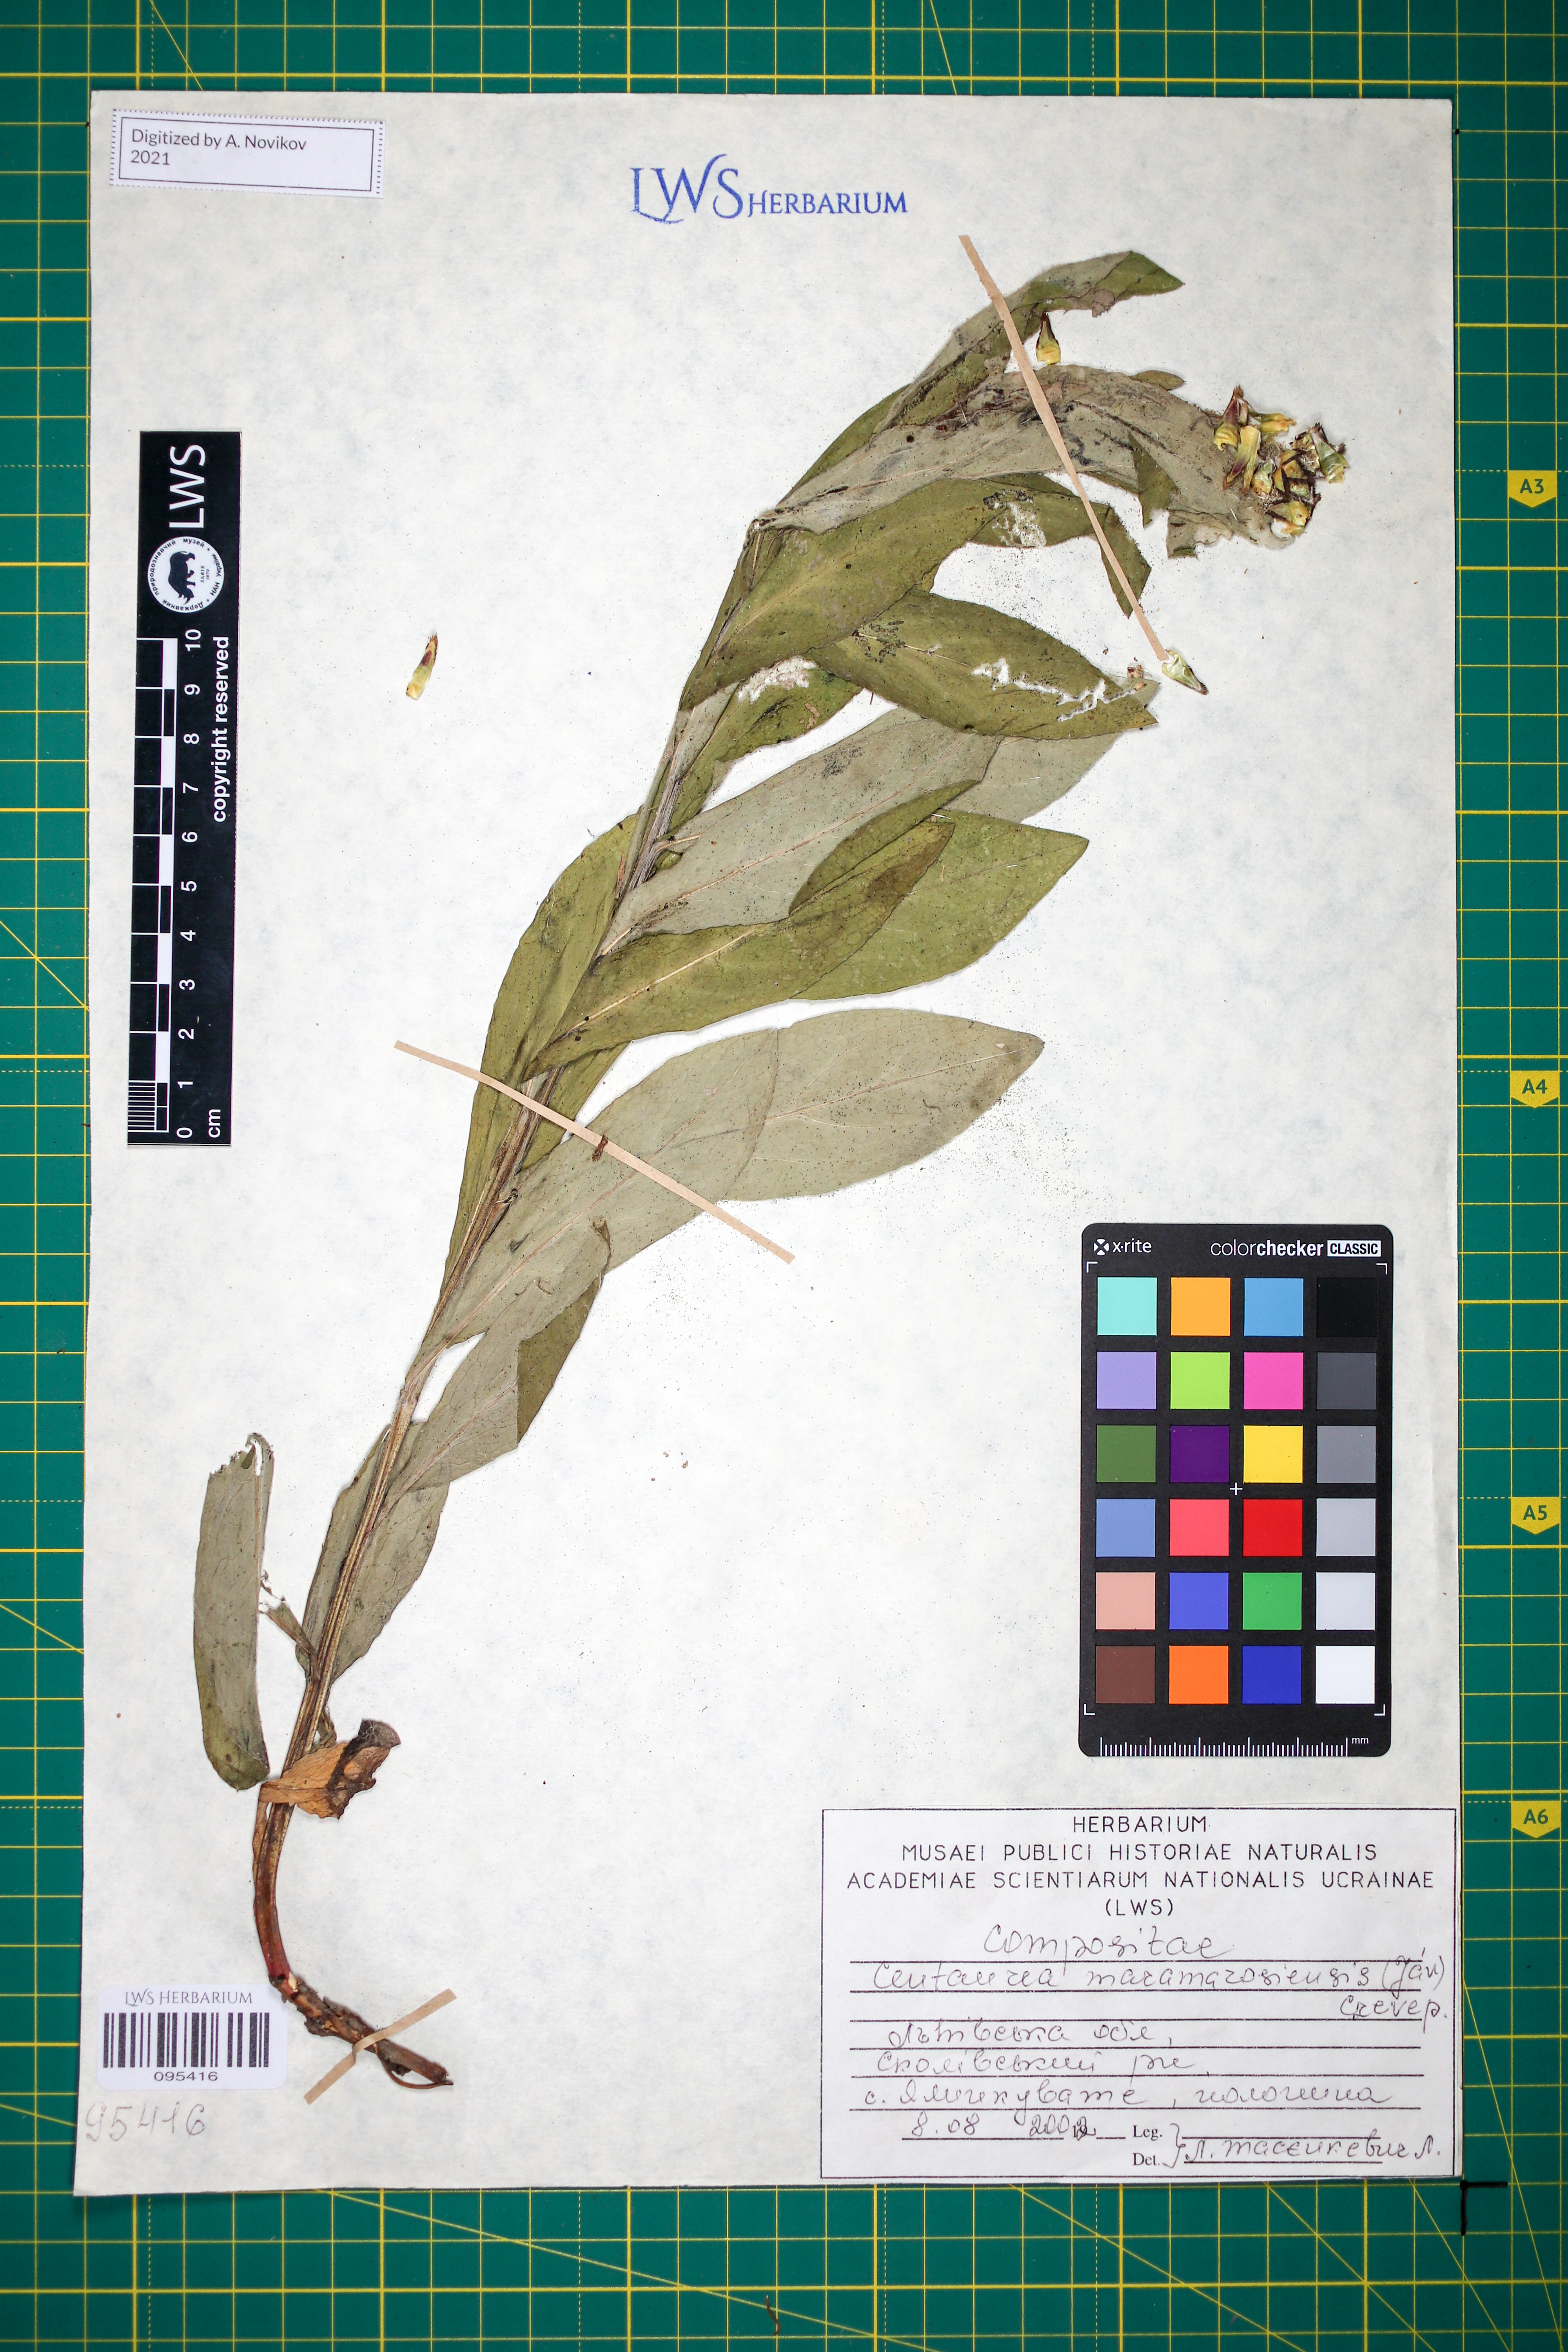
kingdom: Plantae
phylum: Tracheophyta
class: Magnoliopsida
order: Asterales
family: Asteraceae
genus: Centaurea
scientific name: Centaurea maramarosiensis
